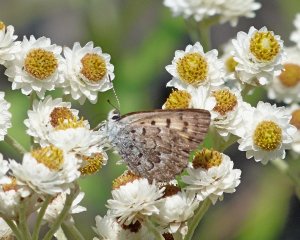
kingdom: Animalia
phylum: Arthropoda
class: Insecta
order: Lepidoptera
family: Lycaenidae
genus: Lycaena
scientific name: Lycaena mariposa
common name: Mariposa Copper
